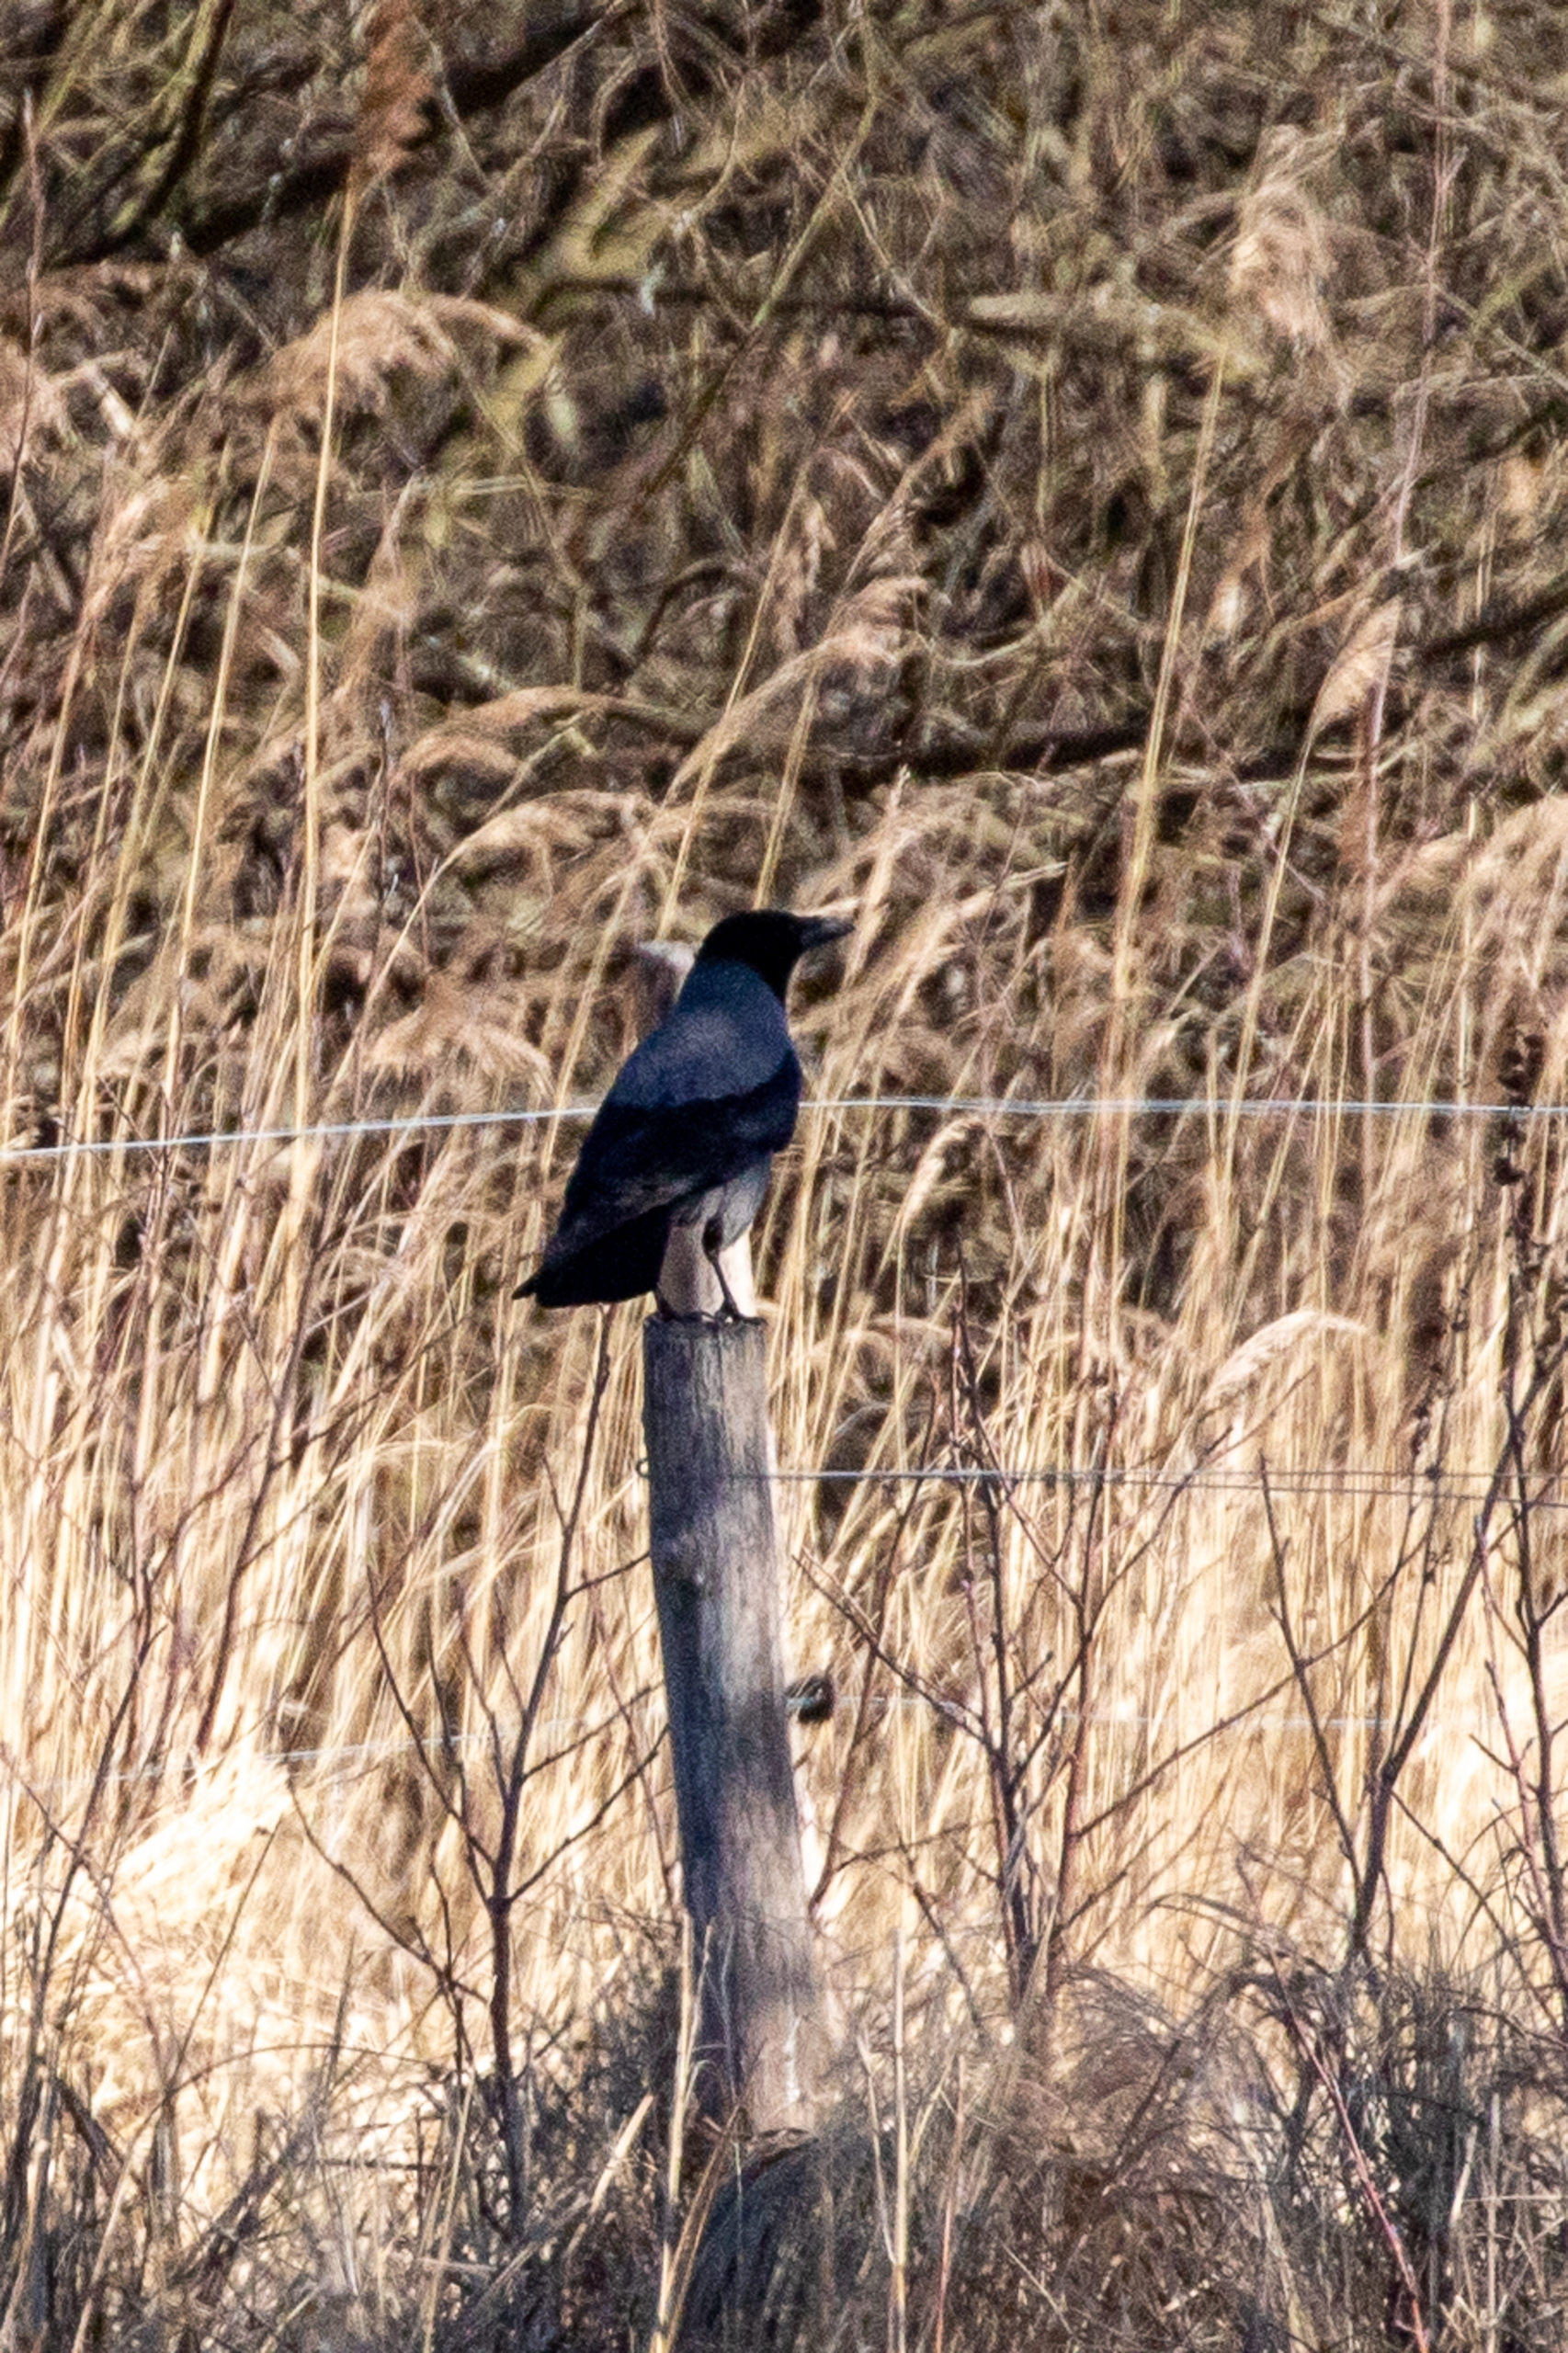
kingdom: Animalia
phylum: Chordata
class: Aves
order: Passeriformes
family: Corvidae
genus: Corvus
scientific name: Corvus cornix
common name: Gråkrage
